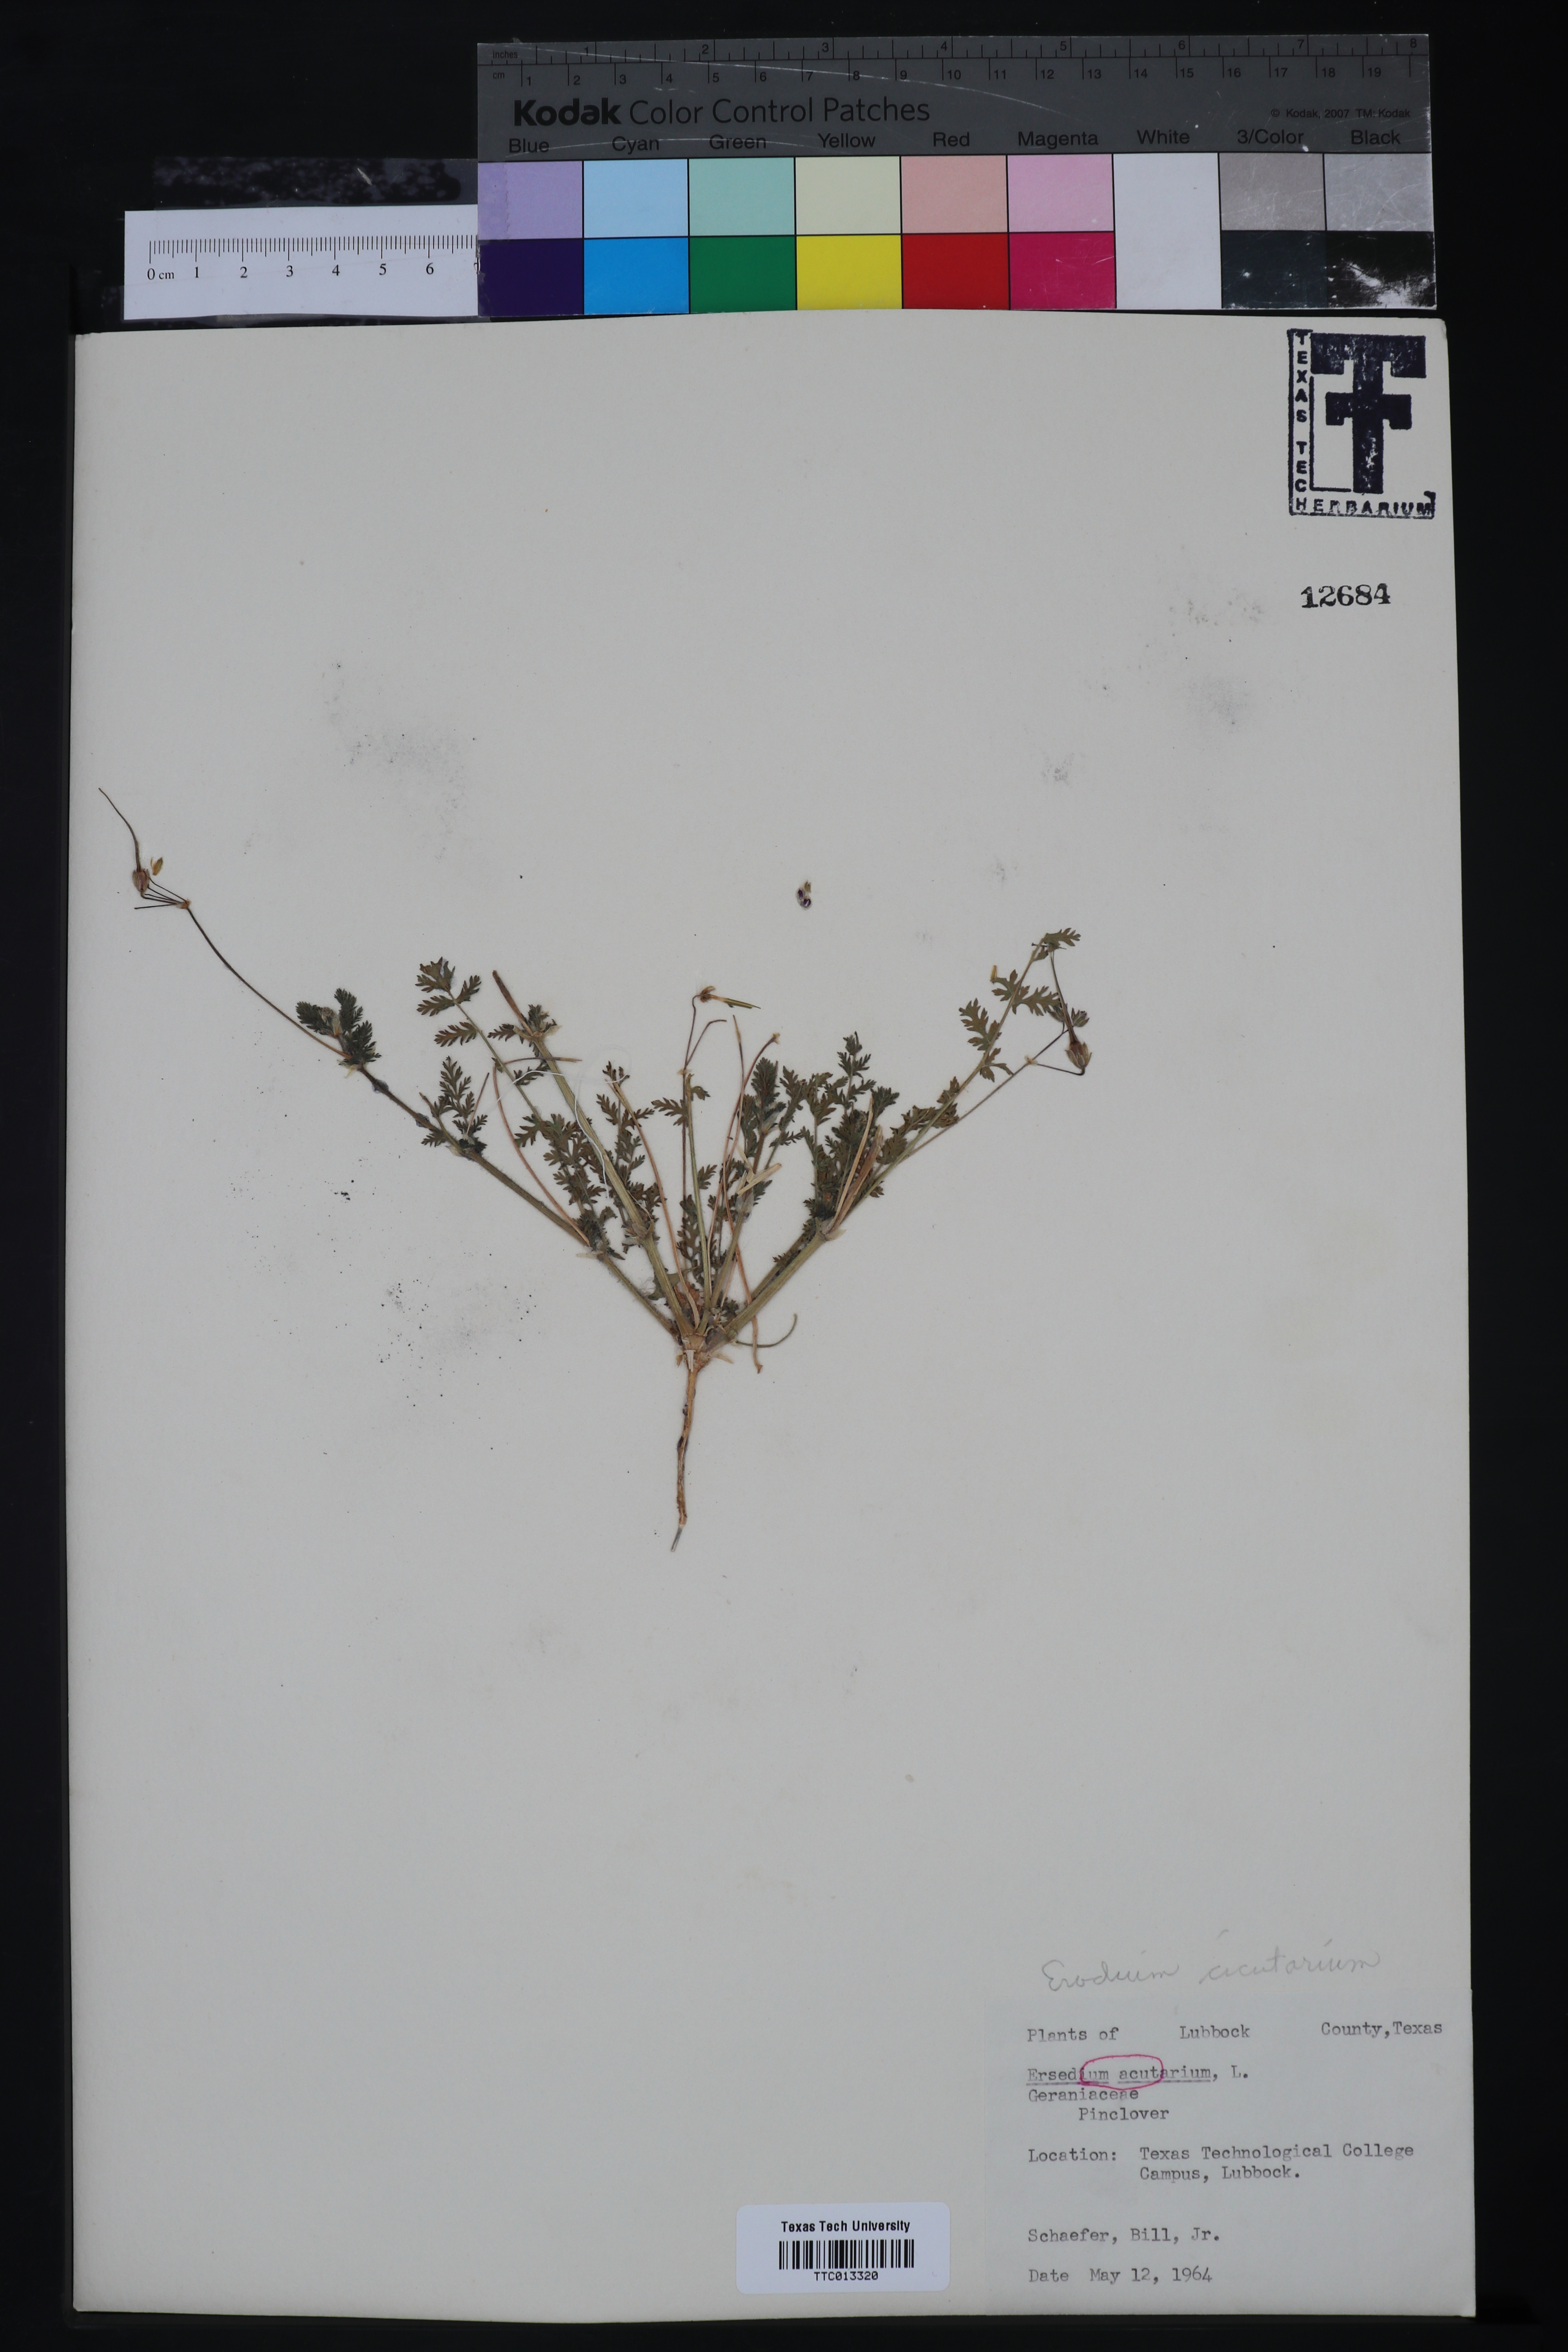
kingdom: Plantae
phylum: Tracheophyta
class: Magnoliopsida
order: Geraniales
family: Geraniaceae
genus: Erodium
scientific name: Erodium cicutarium
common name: Common stork's-bill
